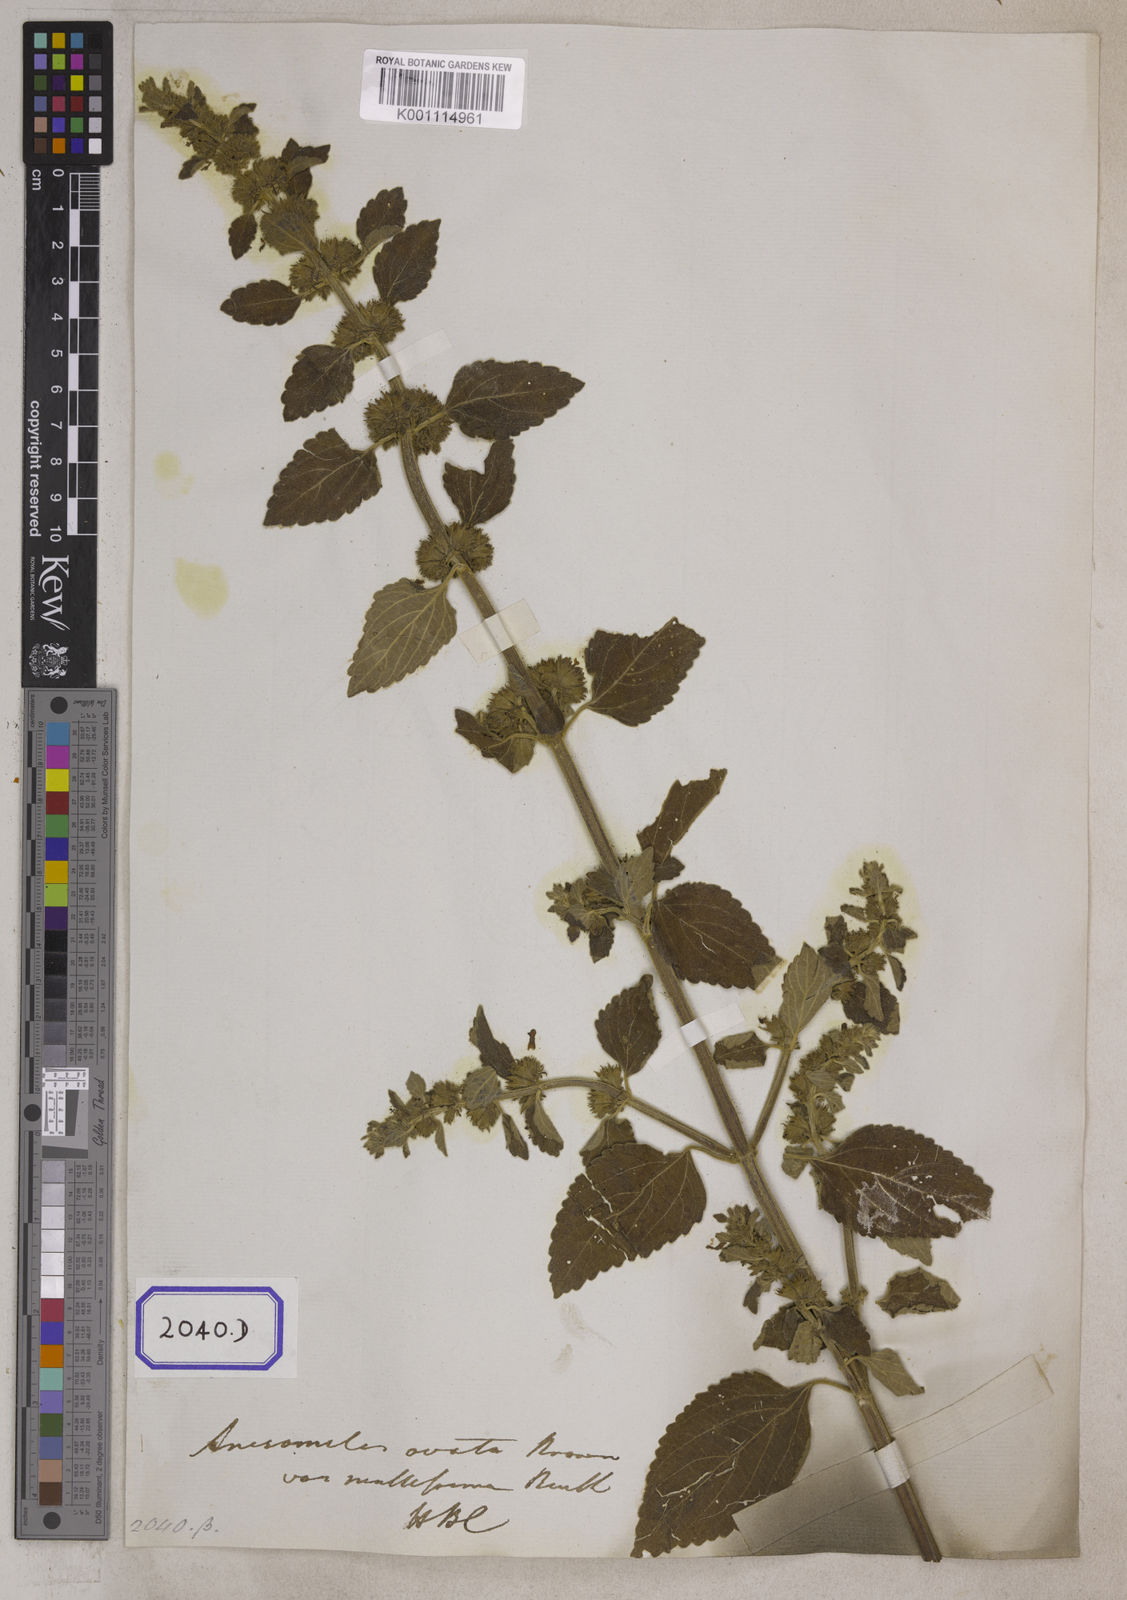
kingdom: Plantae
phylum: Tracheophyta
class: Magnoliopsida
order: Lamiales
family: Lamiaceae
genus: Anisomeles
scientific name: Anisomeles
